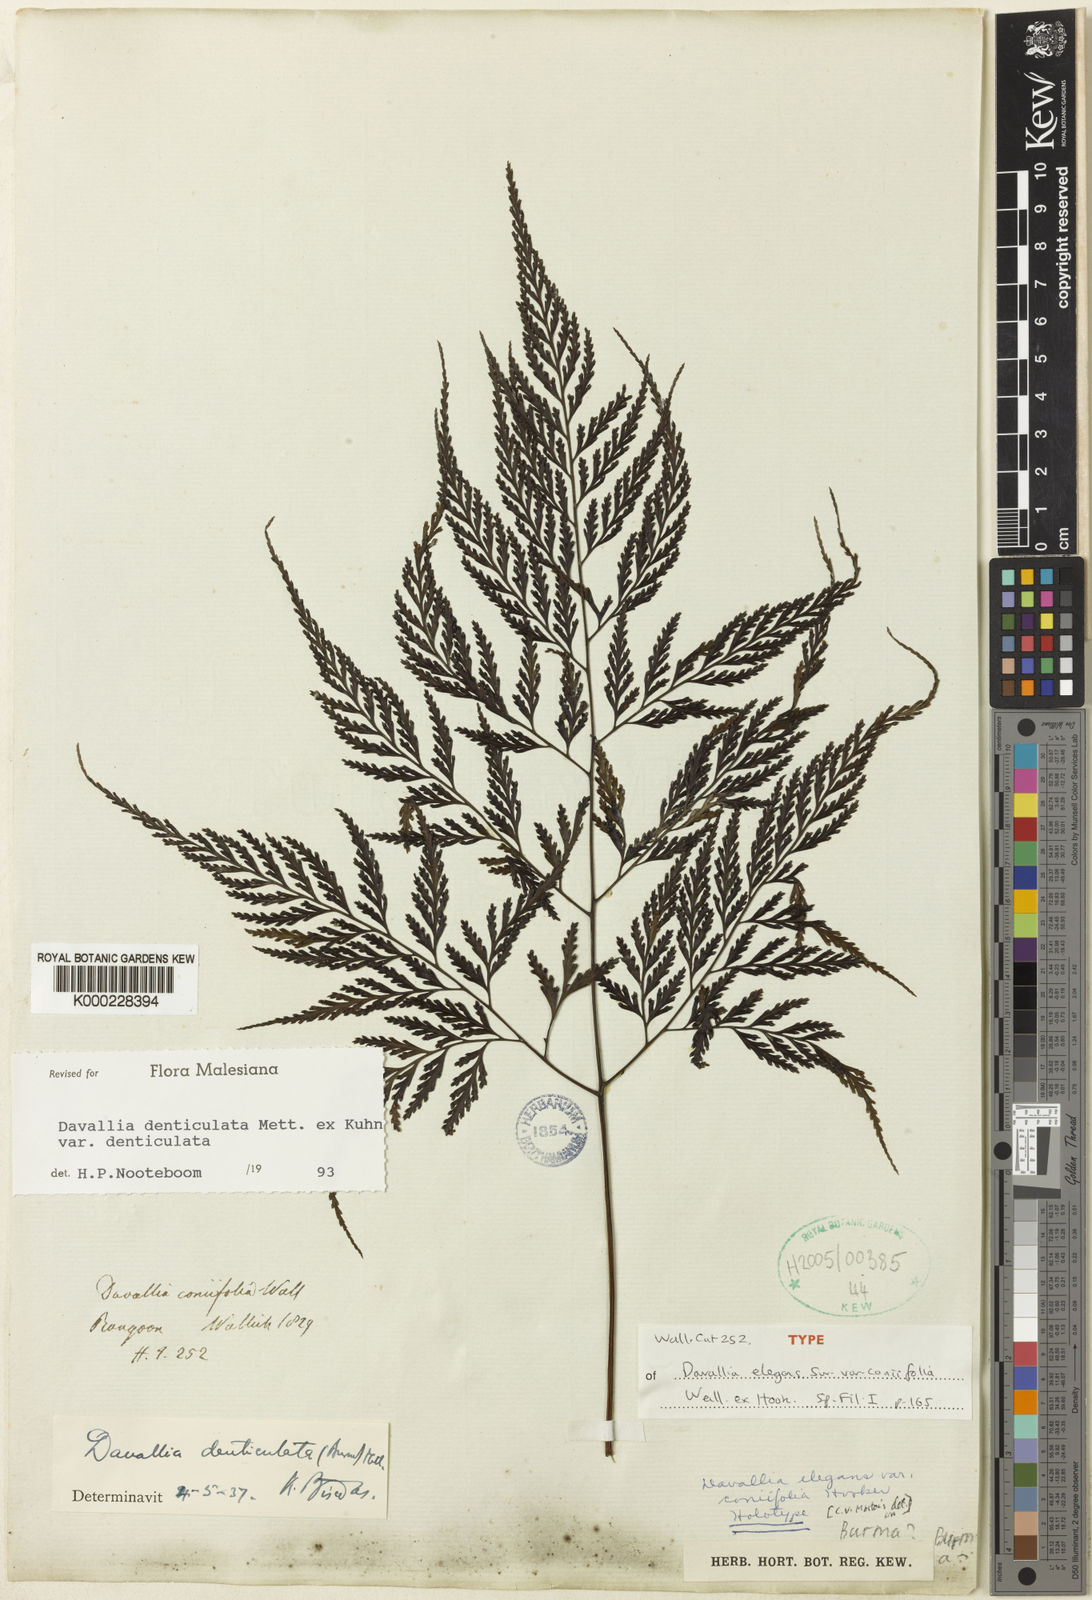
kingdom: Plantae
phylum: Tracheophyta
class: Polypodiopsida
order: Polypodiales
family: Davalliaceae
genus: Davallia
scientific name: Davallia
